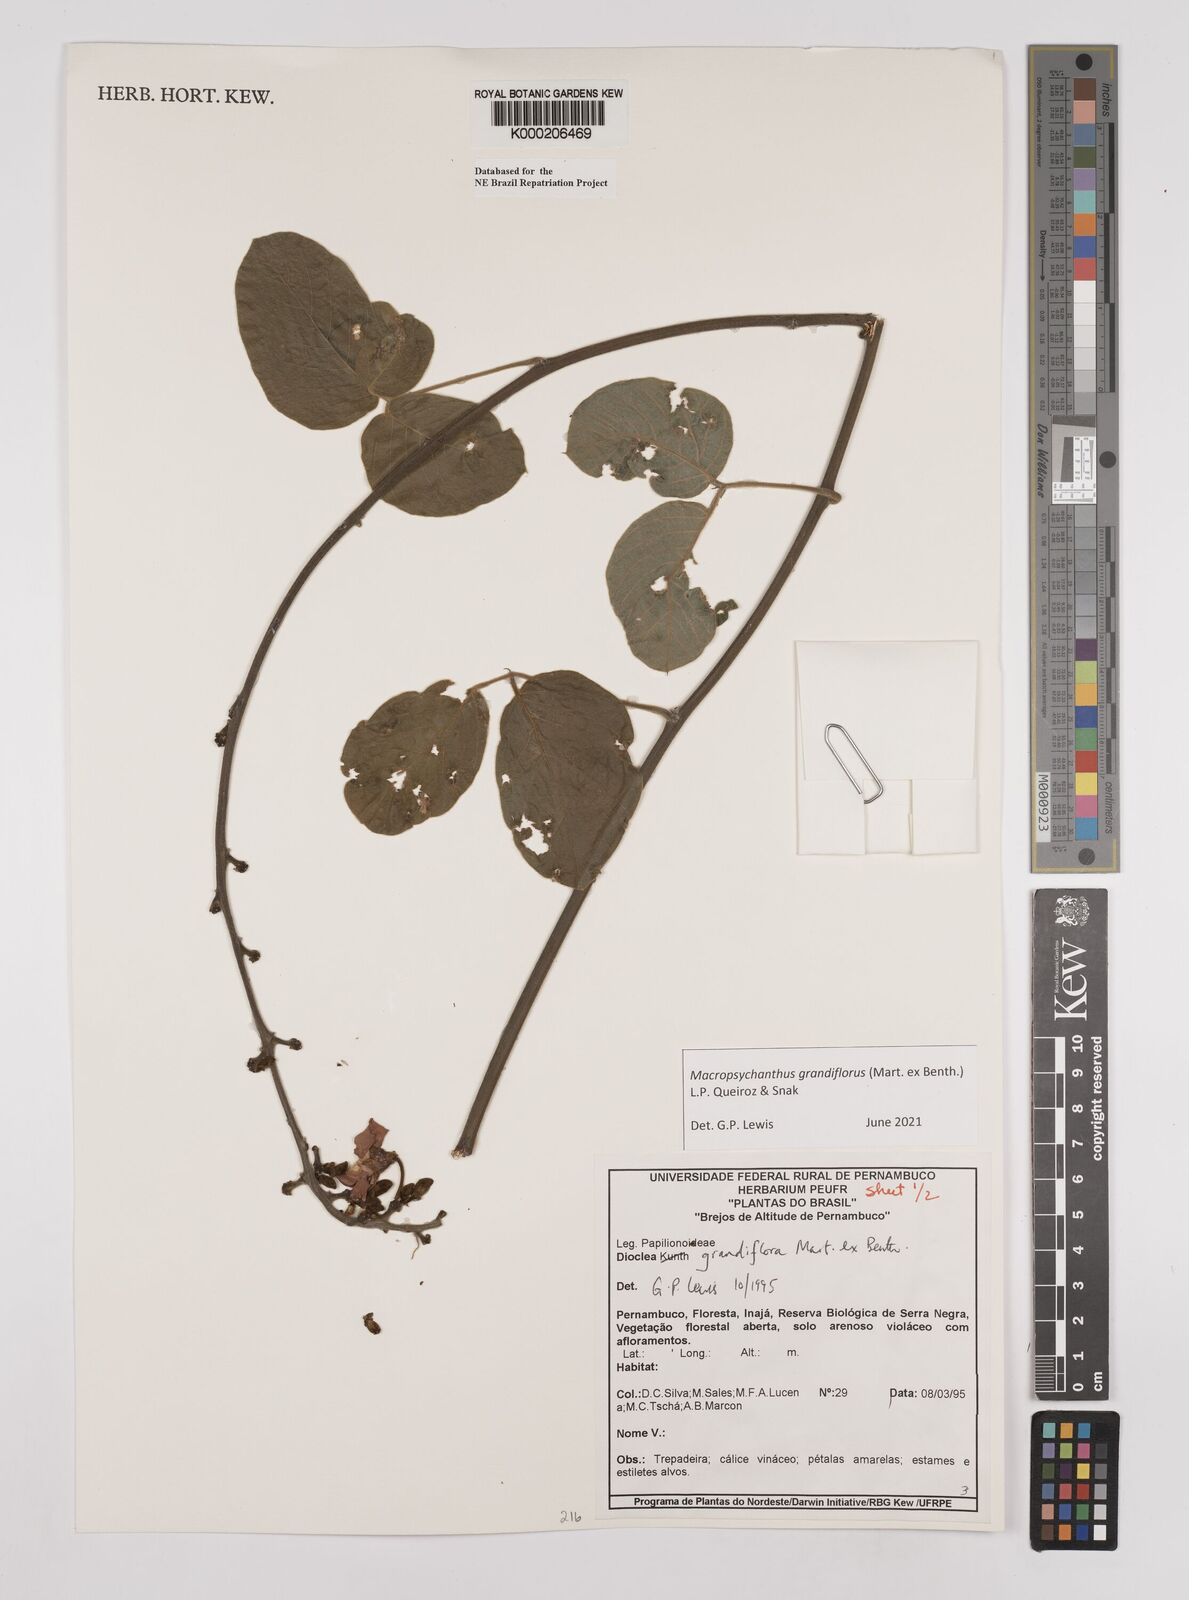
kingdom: Plantae
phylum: Tracheophyta
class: Magnoliopsida
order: Fabales
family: Fabaceae
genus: Macropsychanthus
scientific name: Macropsychanthus grandiflorus
